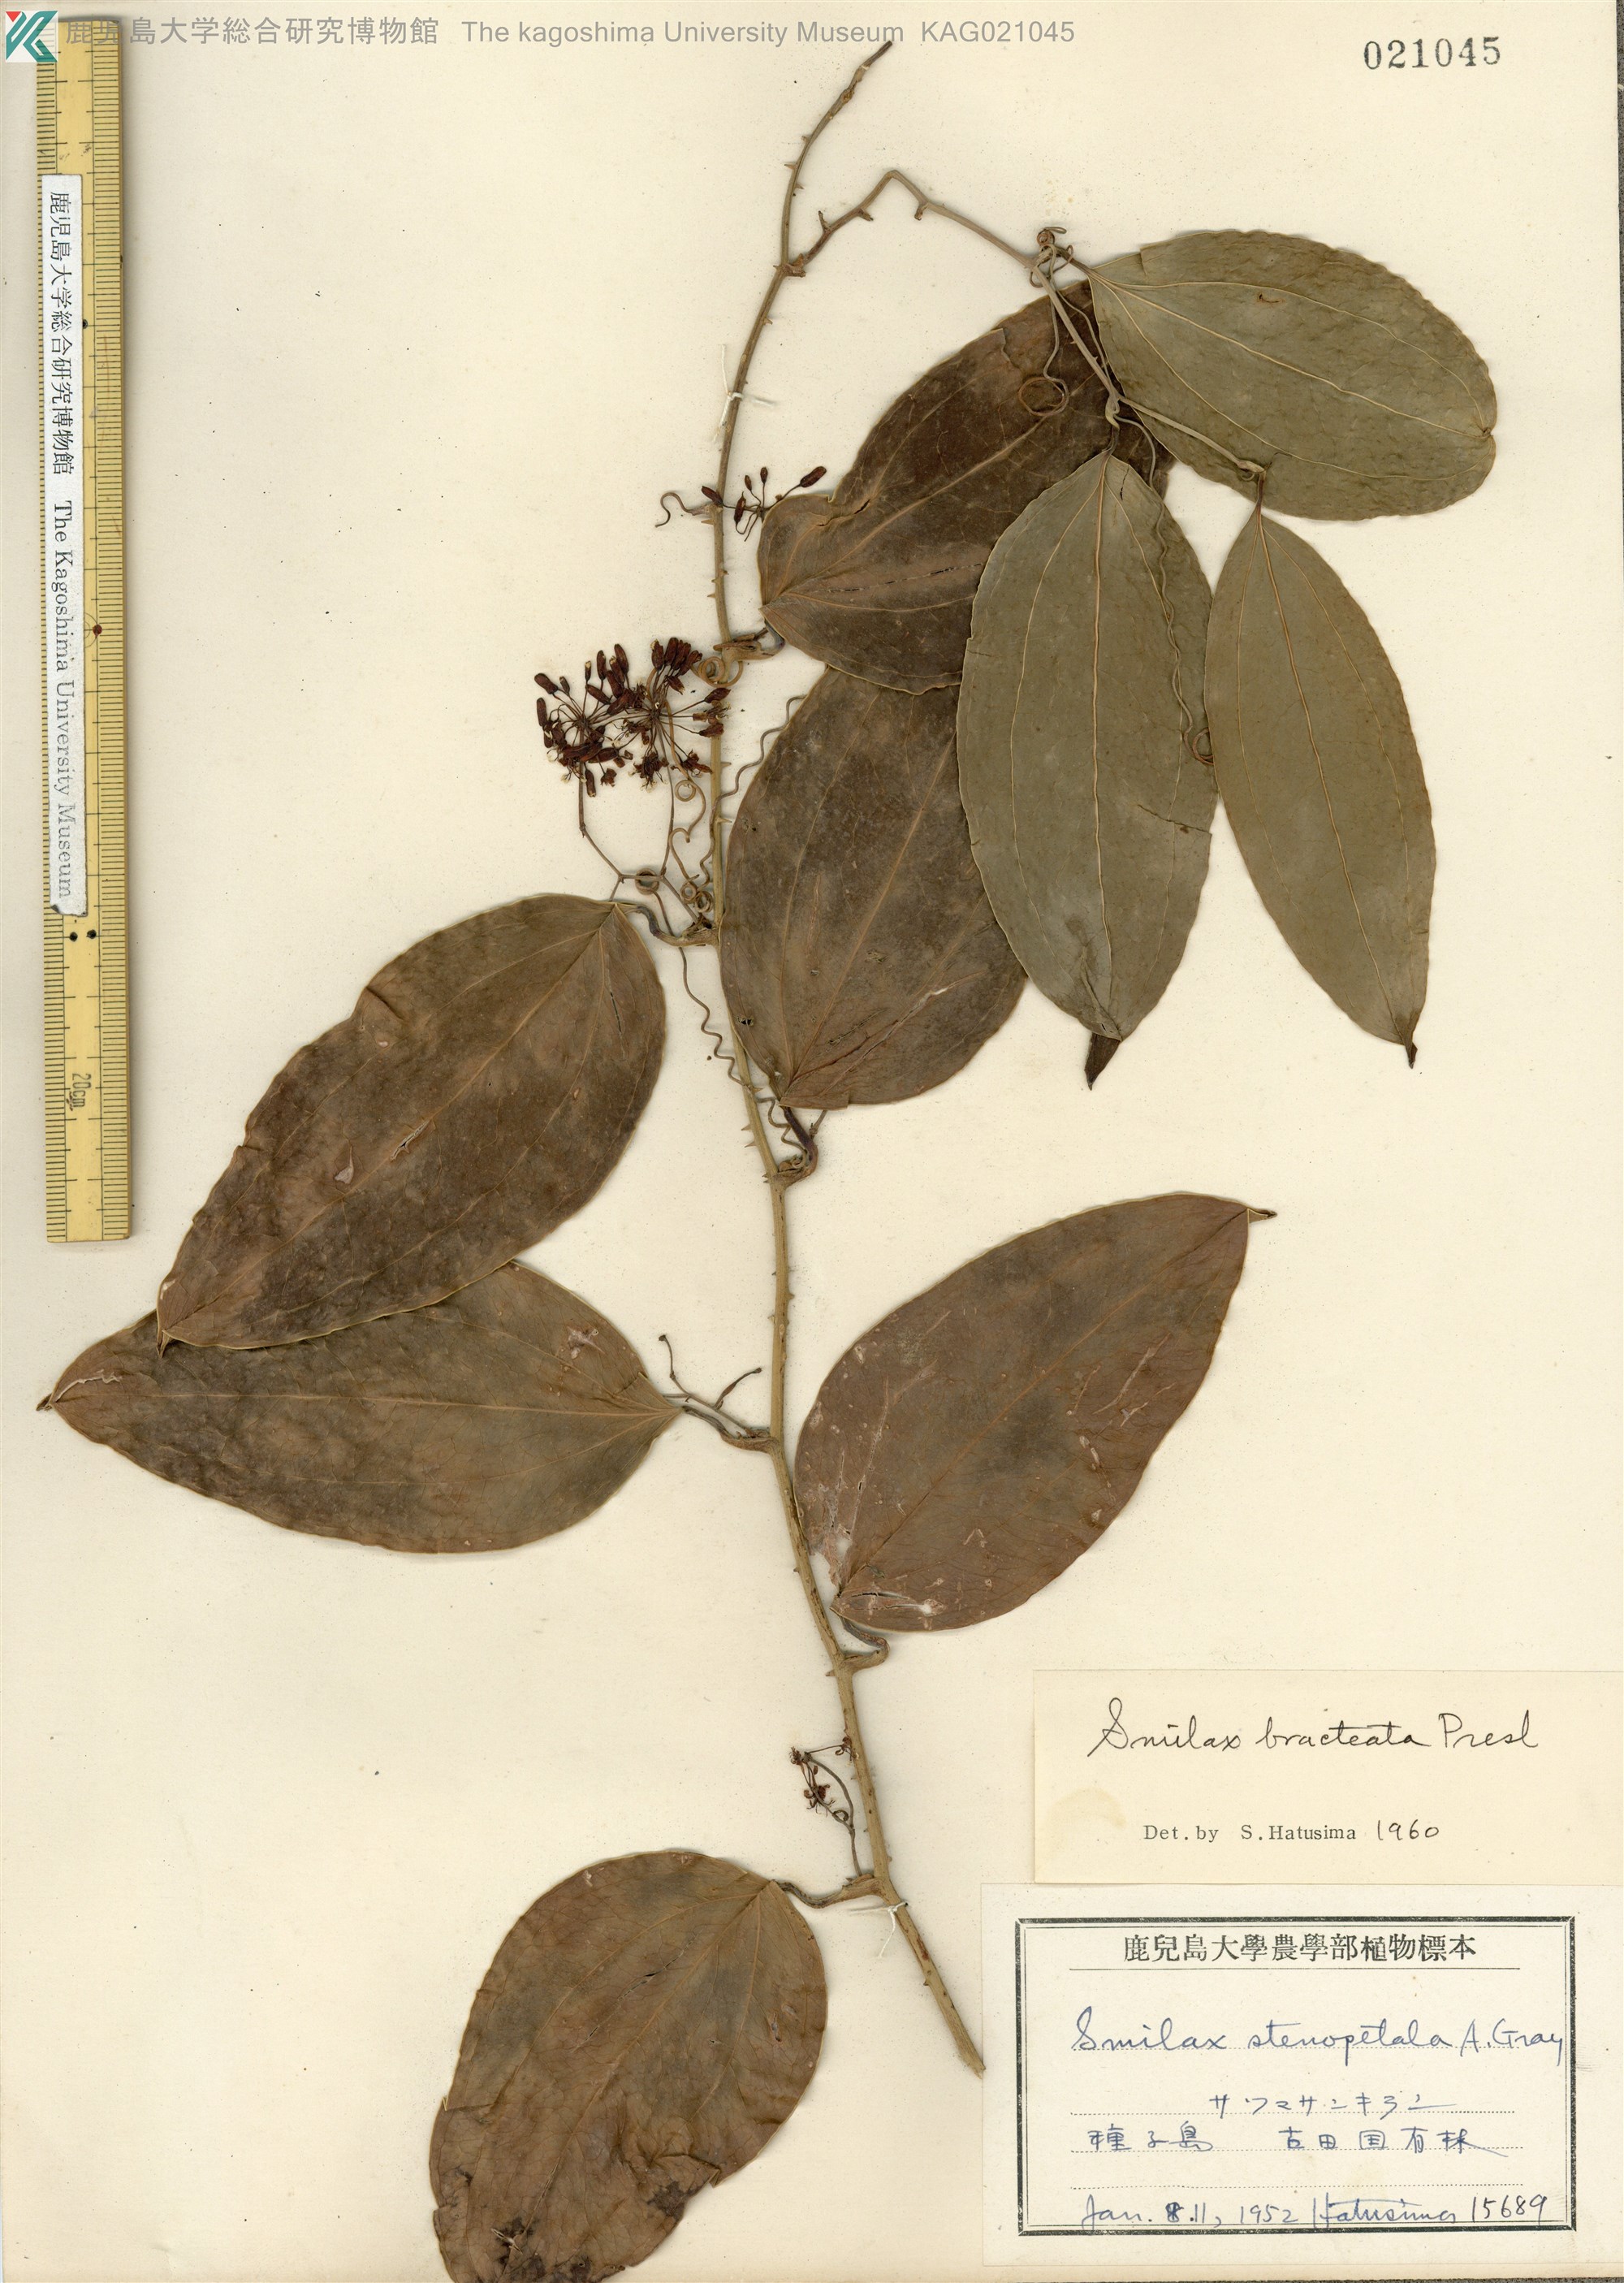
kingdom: Plantae
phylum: Tracheophyta
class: Liliopsida
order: Liliales
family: Smilacaceae
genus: Smilax
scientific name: Smilax bracteata
